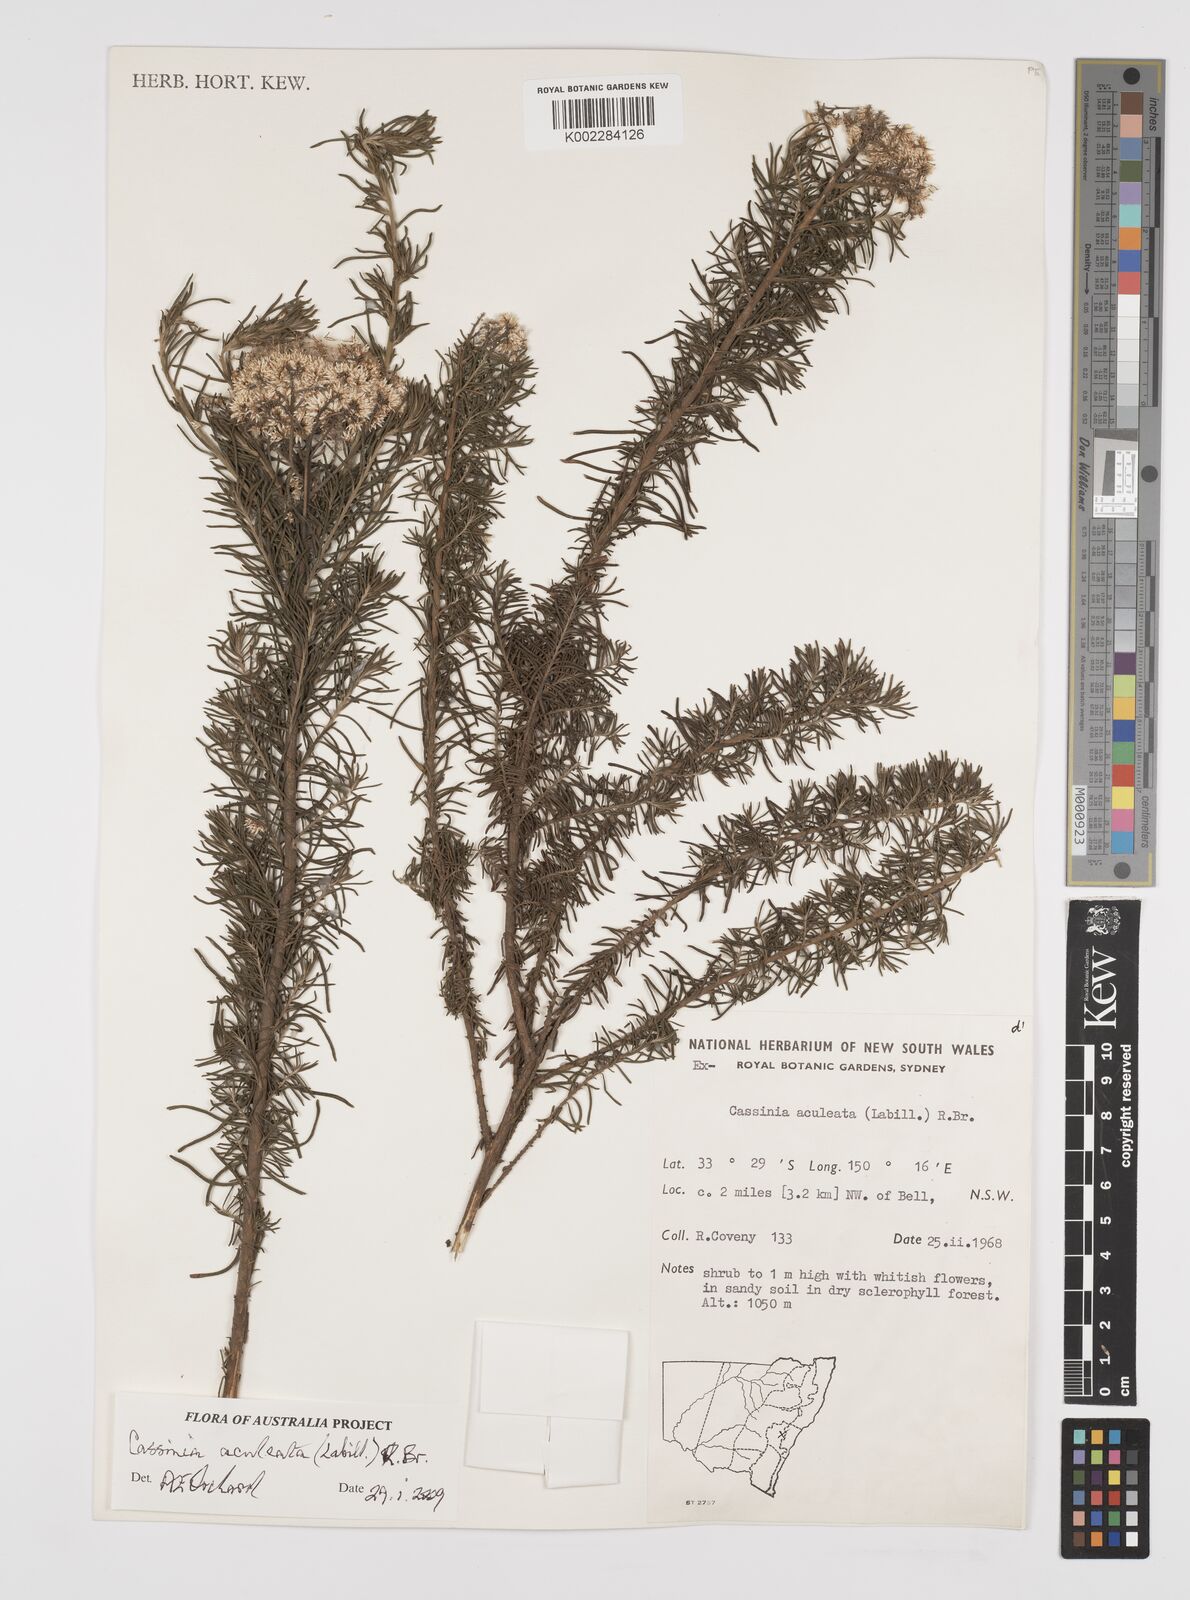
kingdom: Plantae
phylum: Tracheophyta
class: Magnoliopsida
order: Asterales
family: Asteraceae
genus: Cassinia
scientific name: Cassinia aculeata
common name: Australian tauhinu
